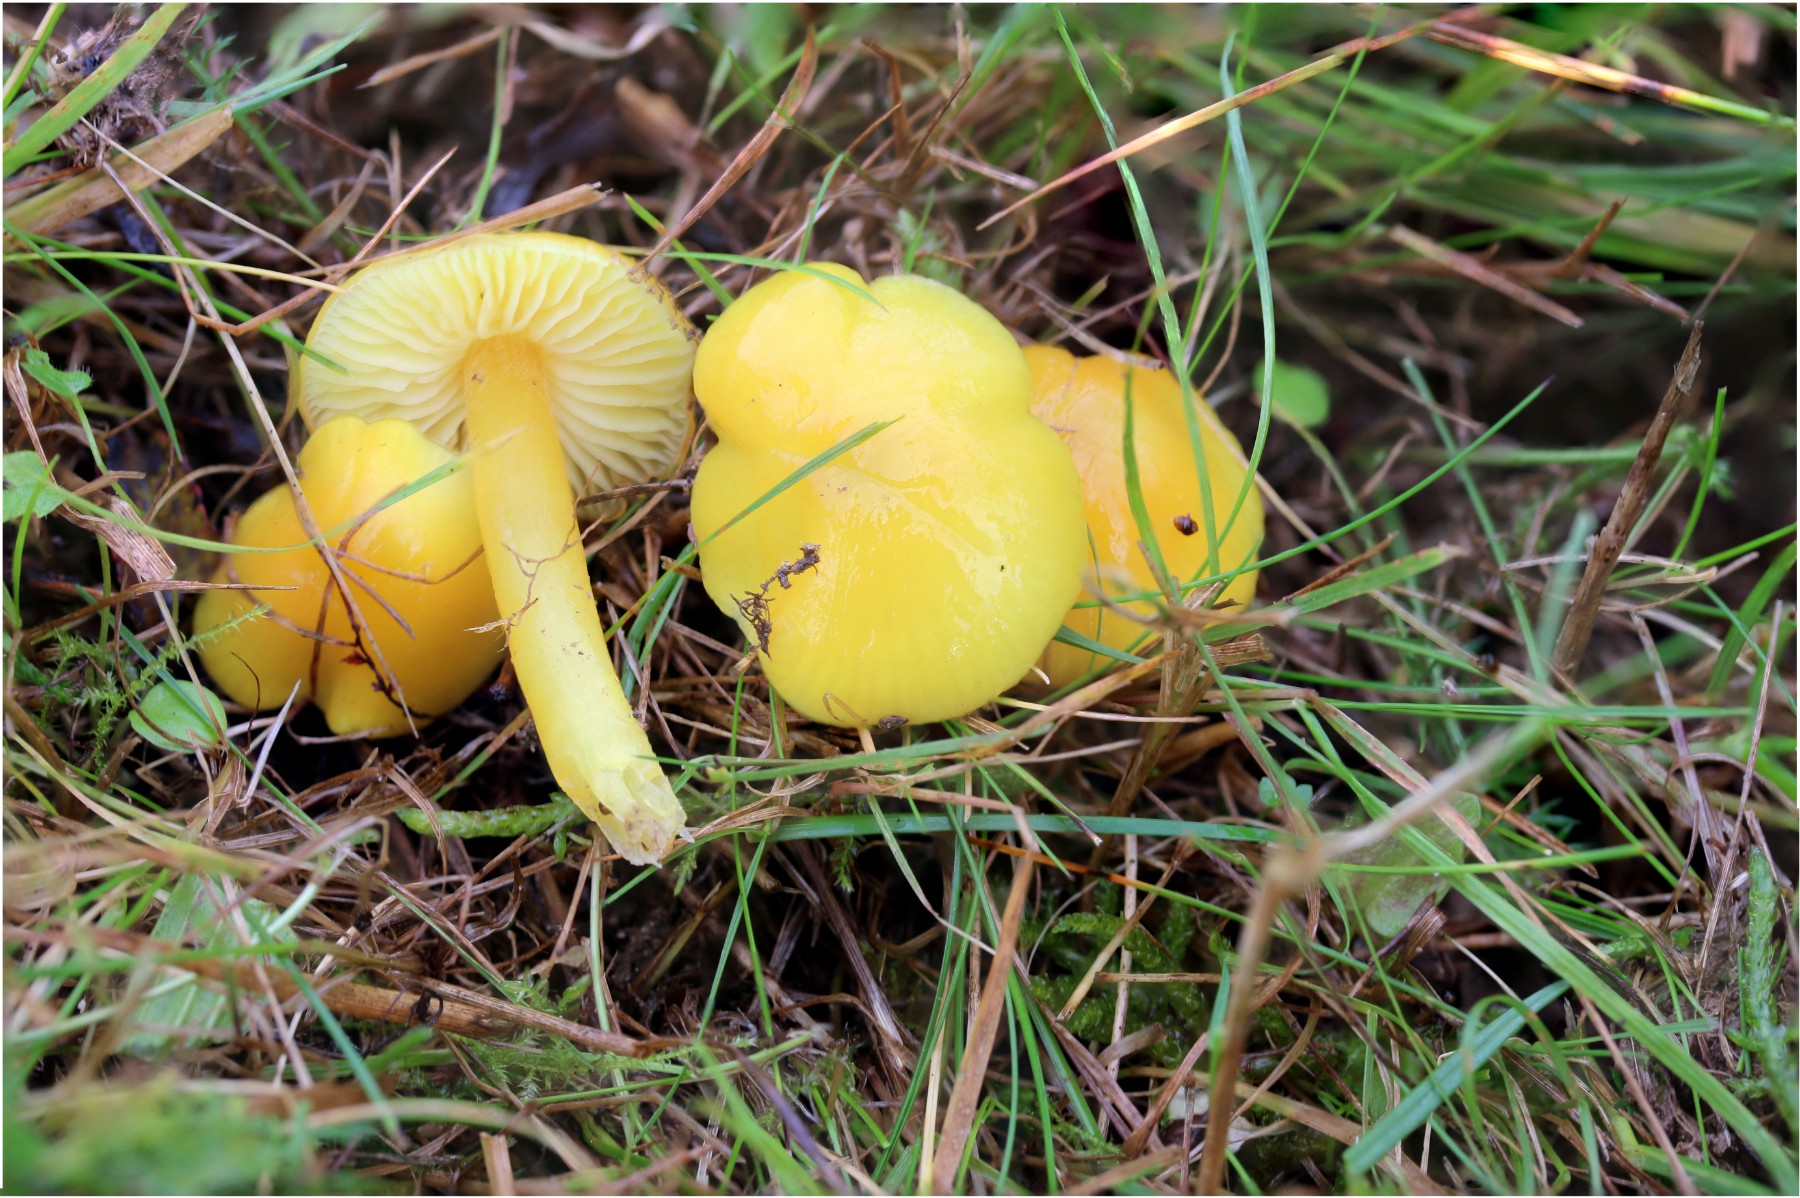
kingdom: Fungi
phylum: Basidiomycota
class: Agaricomycetes
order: Agaricales
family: Hygrophoraceae
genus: Hygrocybe
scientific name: Hygrocybe chlorophana
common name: gul vokshat
